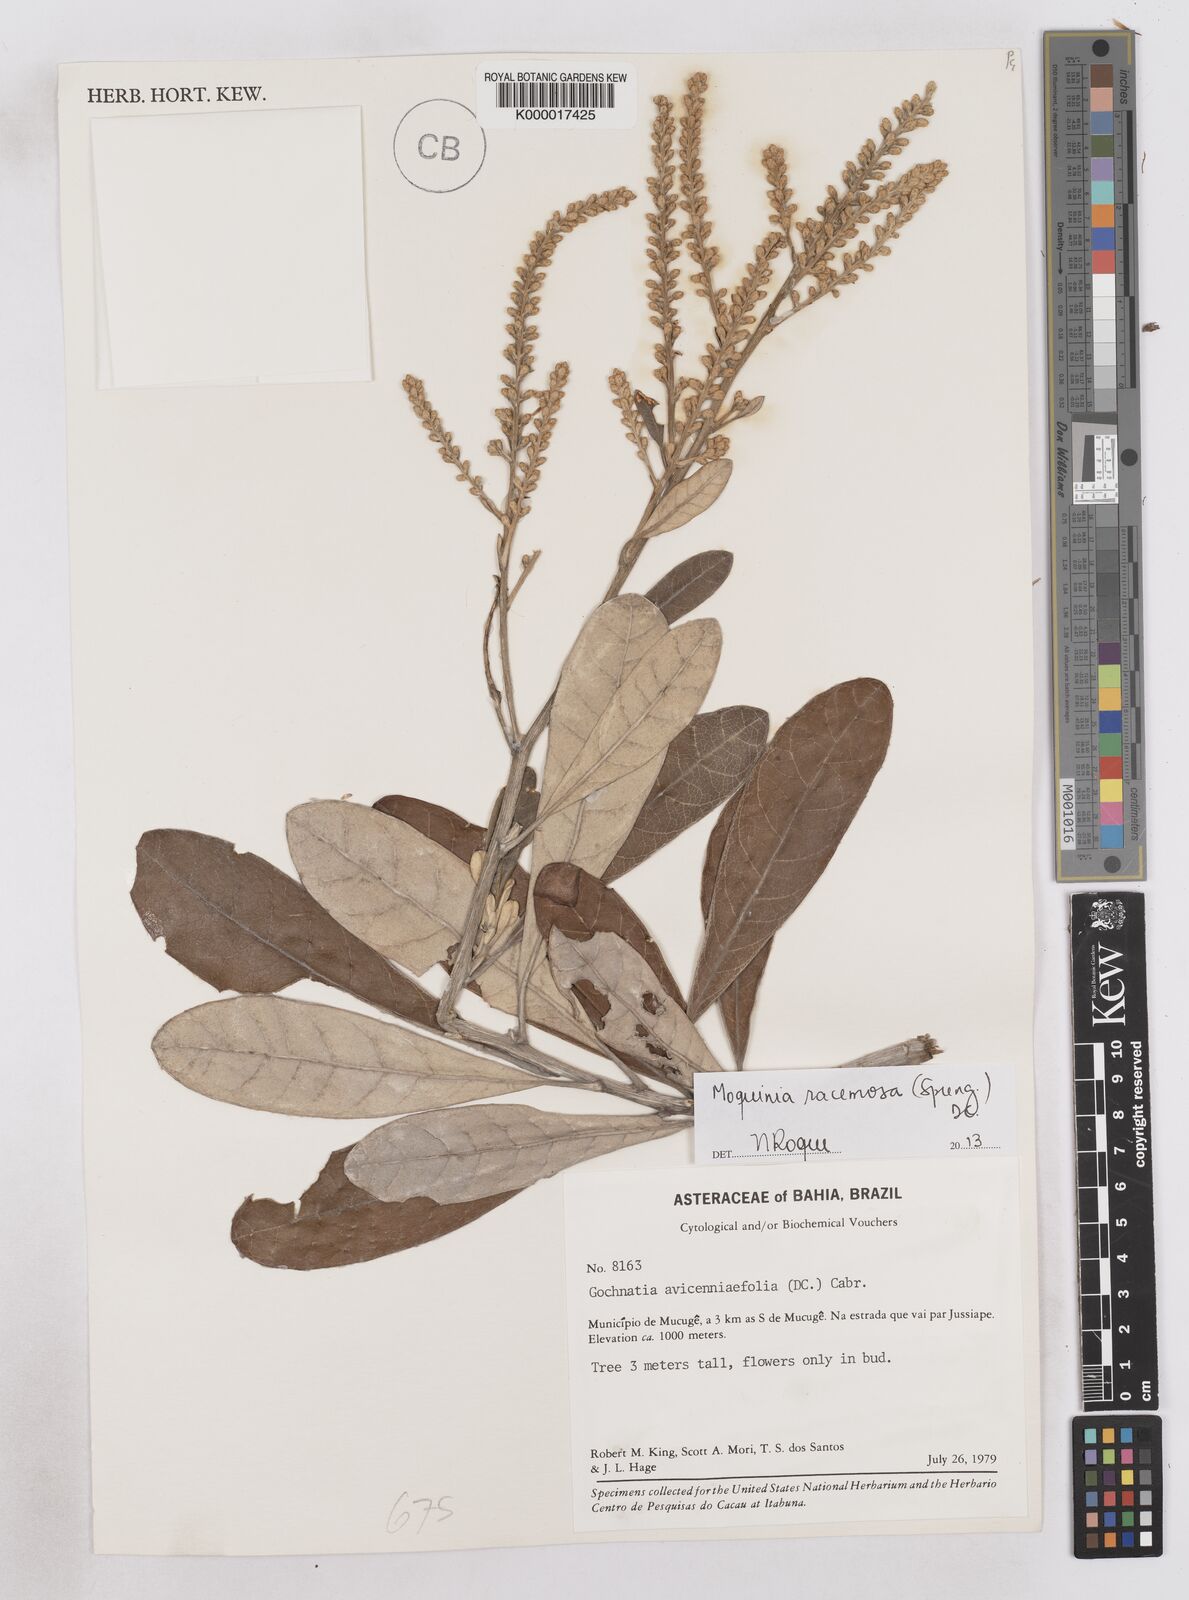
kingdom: Plantae
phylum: Tracheophyta
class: Magnoliopsida
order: Asterales
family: Asteraceae
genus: Moquinia
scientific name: Moquinia racemosa
